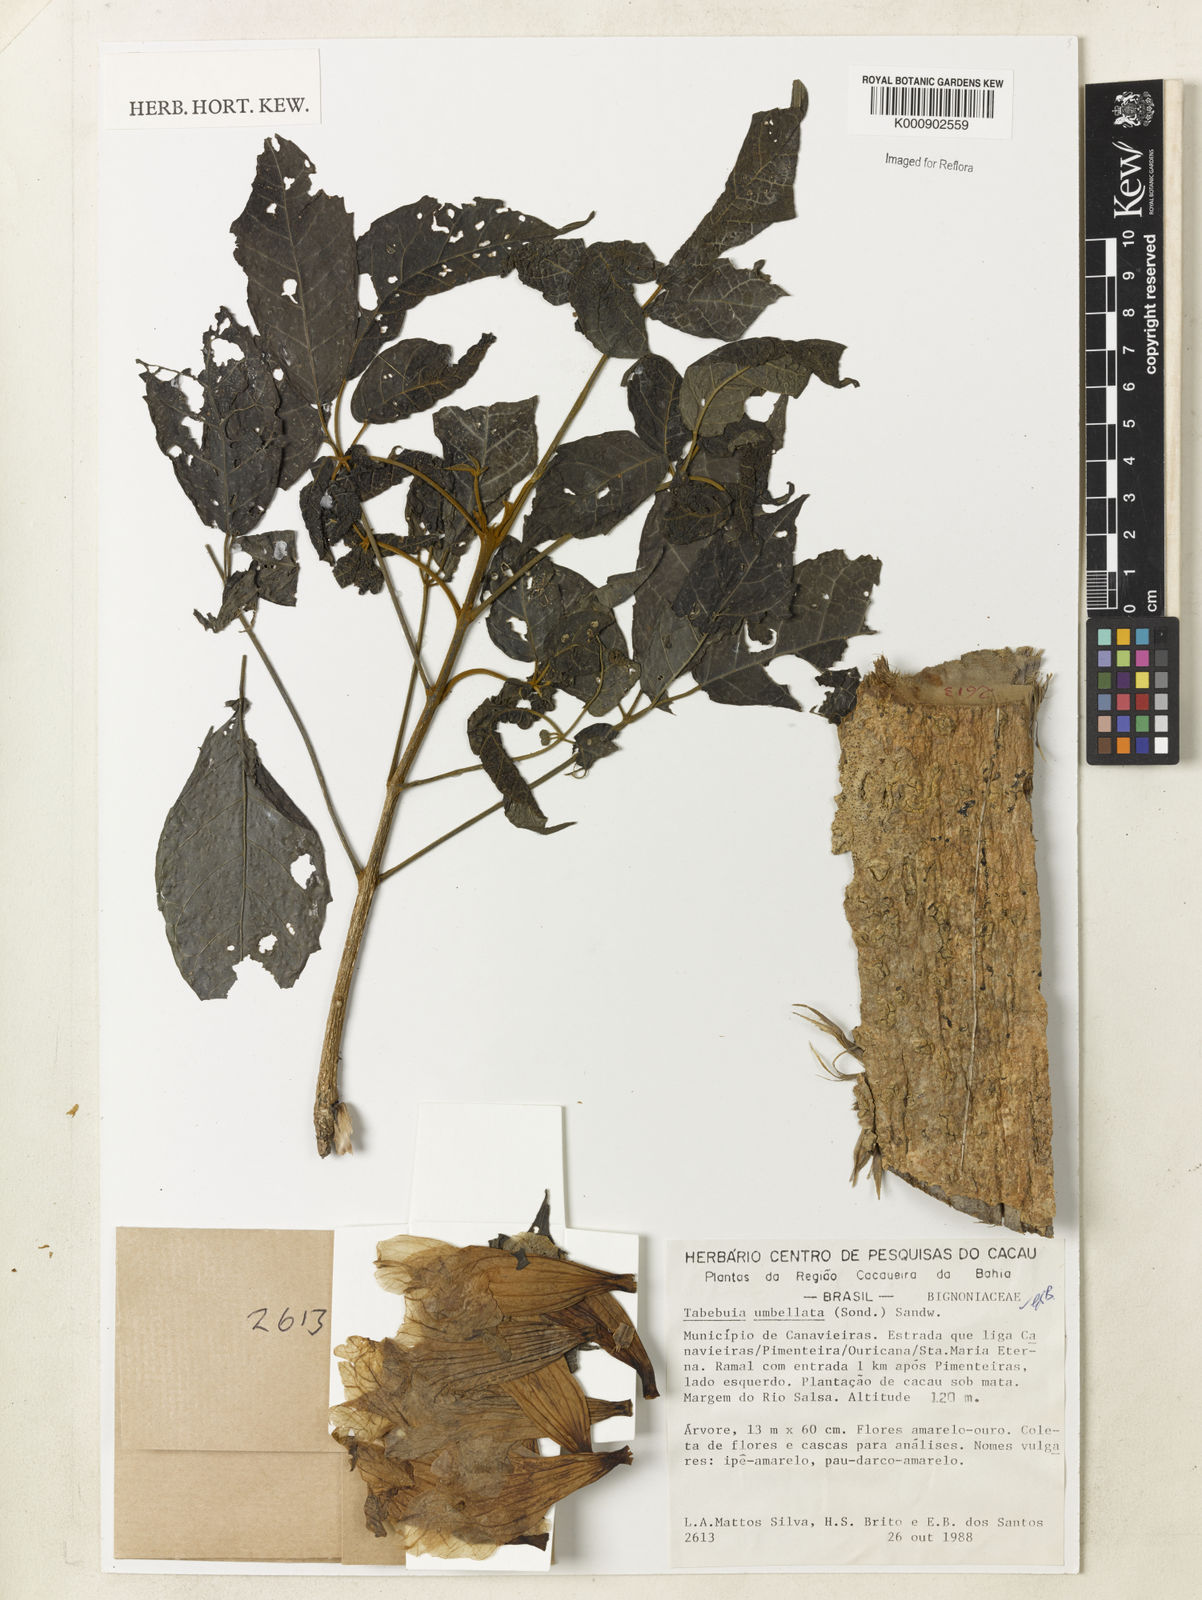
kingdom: Plantae
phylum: Tracheophyta
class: Magnoliopsida
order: Lamiales
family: Bignoniaceae
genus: Handroanthus
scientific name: Handroanthus umbellatus
